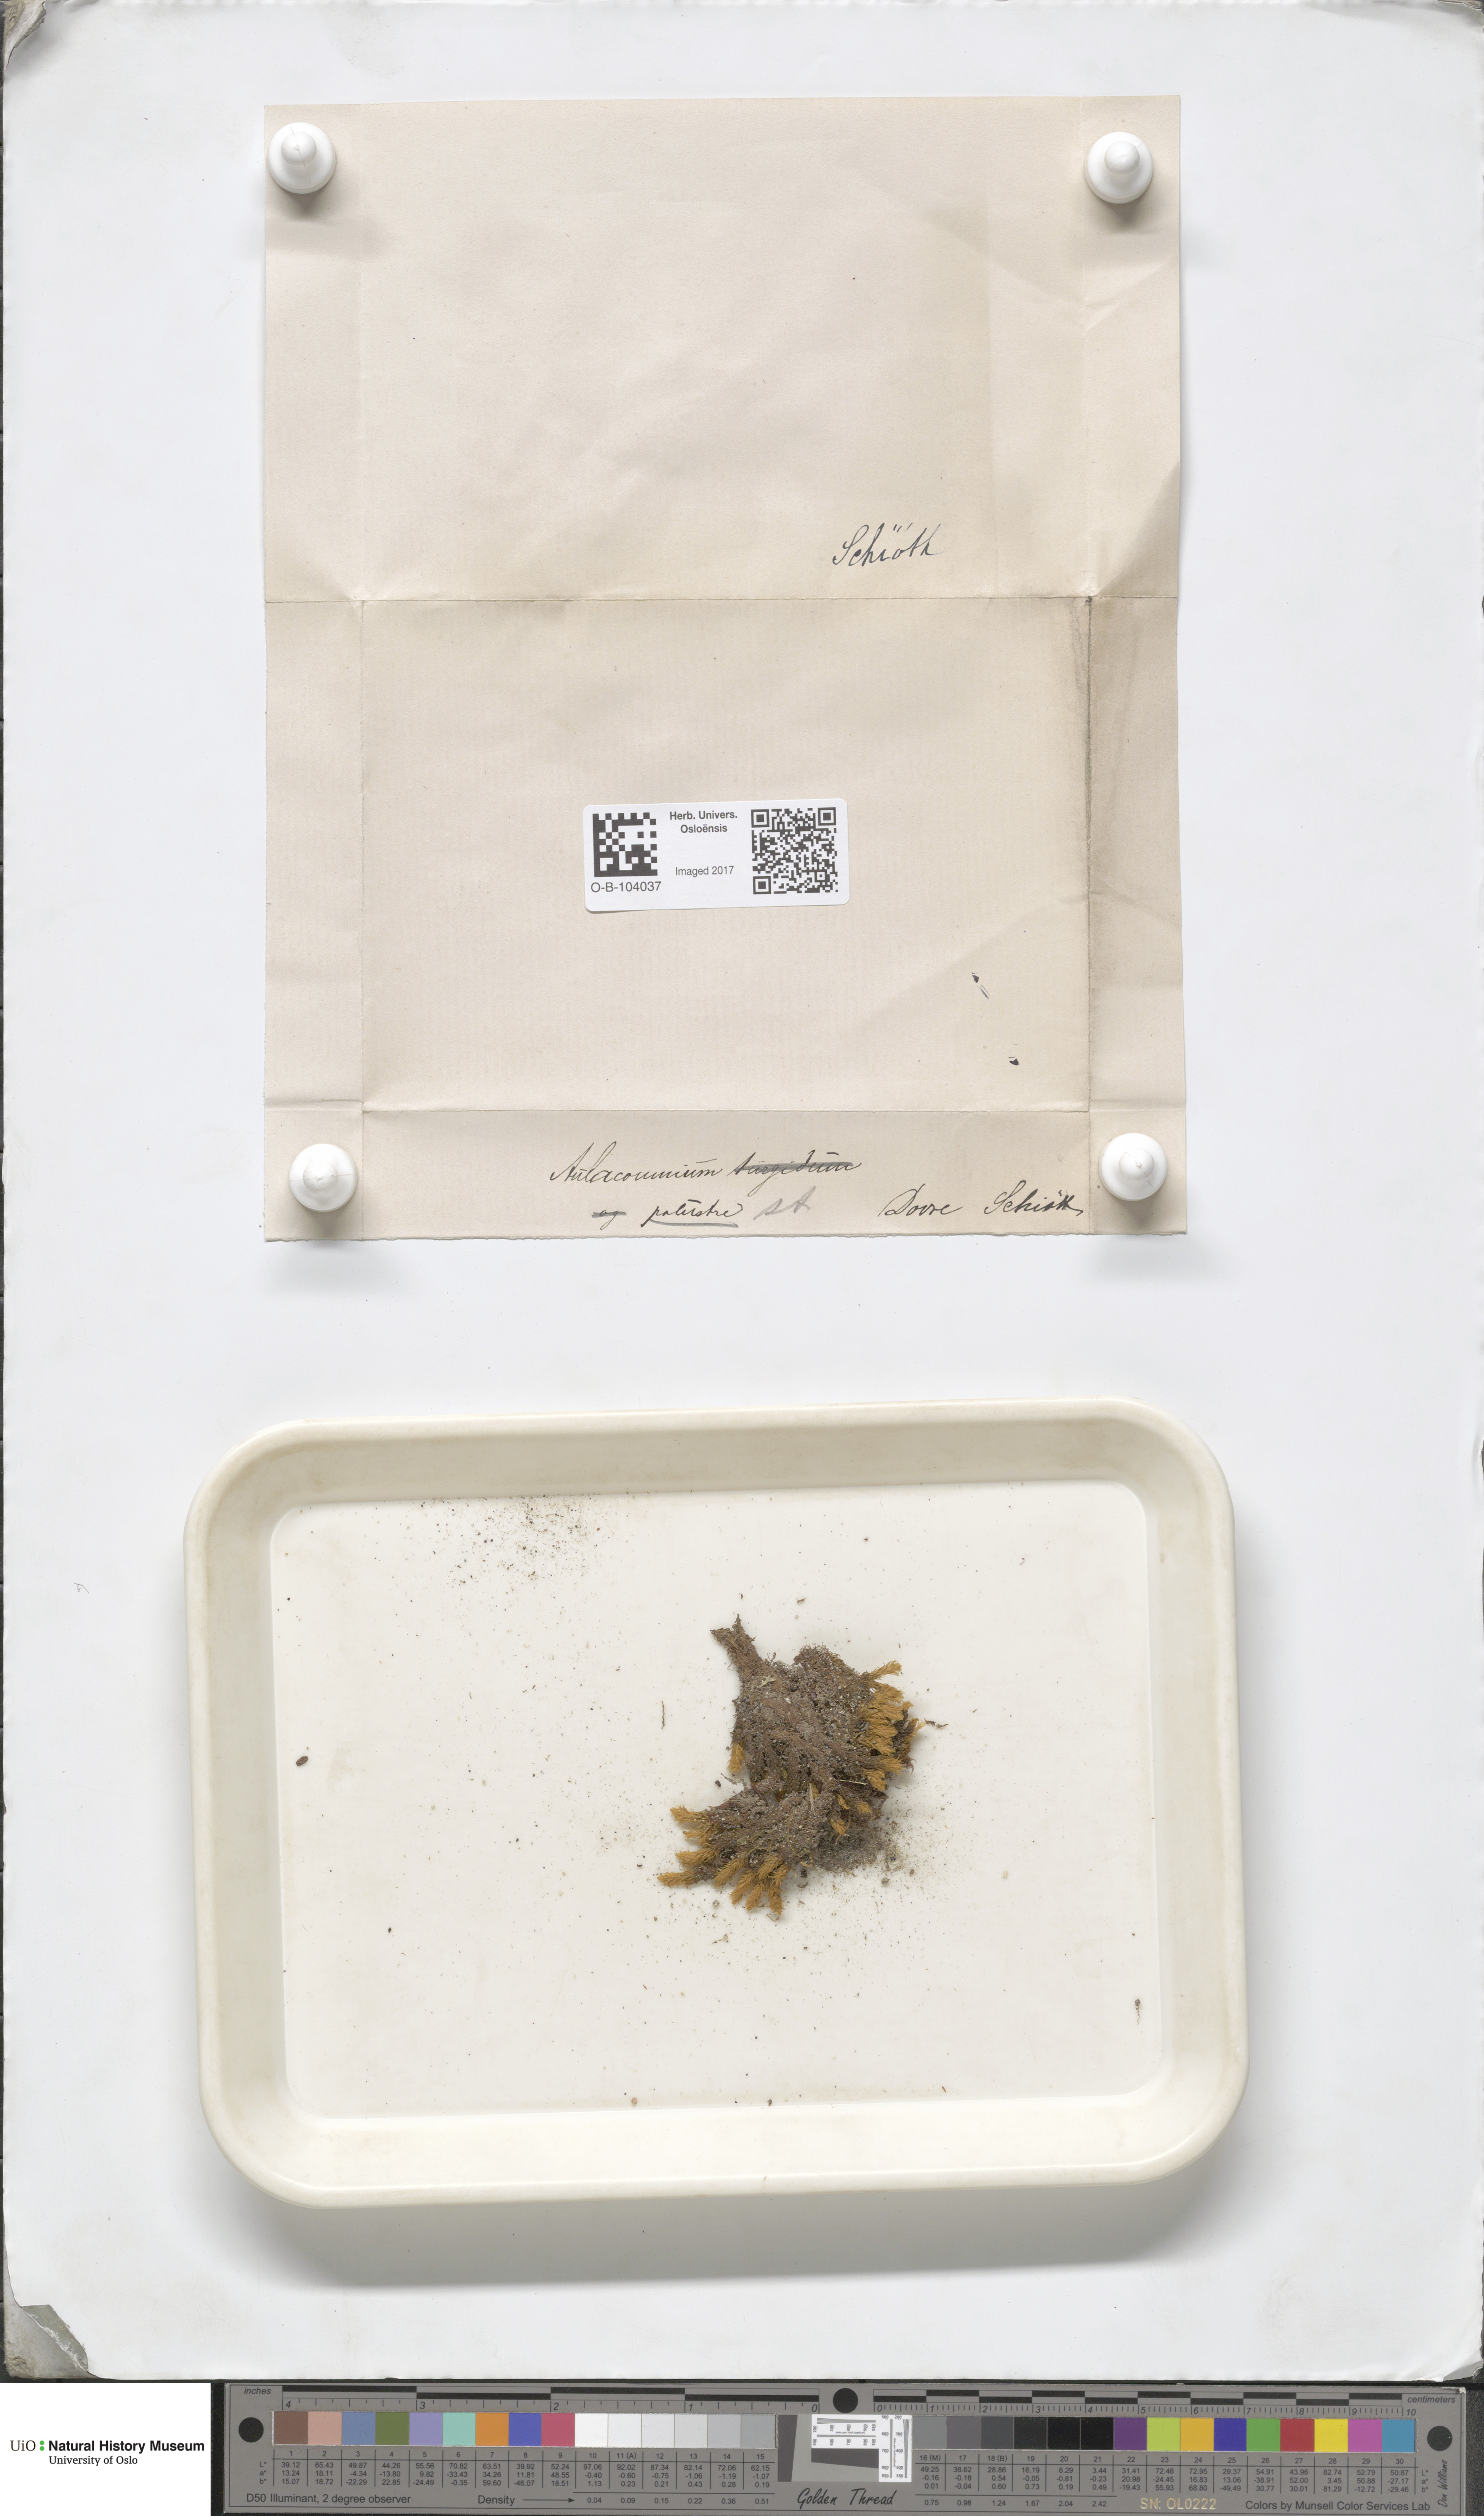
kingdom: Plantae
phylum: Bryophyta
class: Bryopsida
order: Aulacomniales
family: Aulacomniaceae
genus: Aulacomnium
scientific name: Aulacomnium palustre
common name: Bog groove-moss
